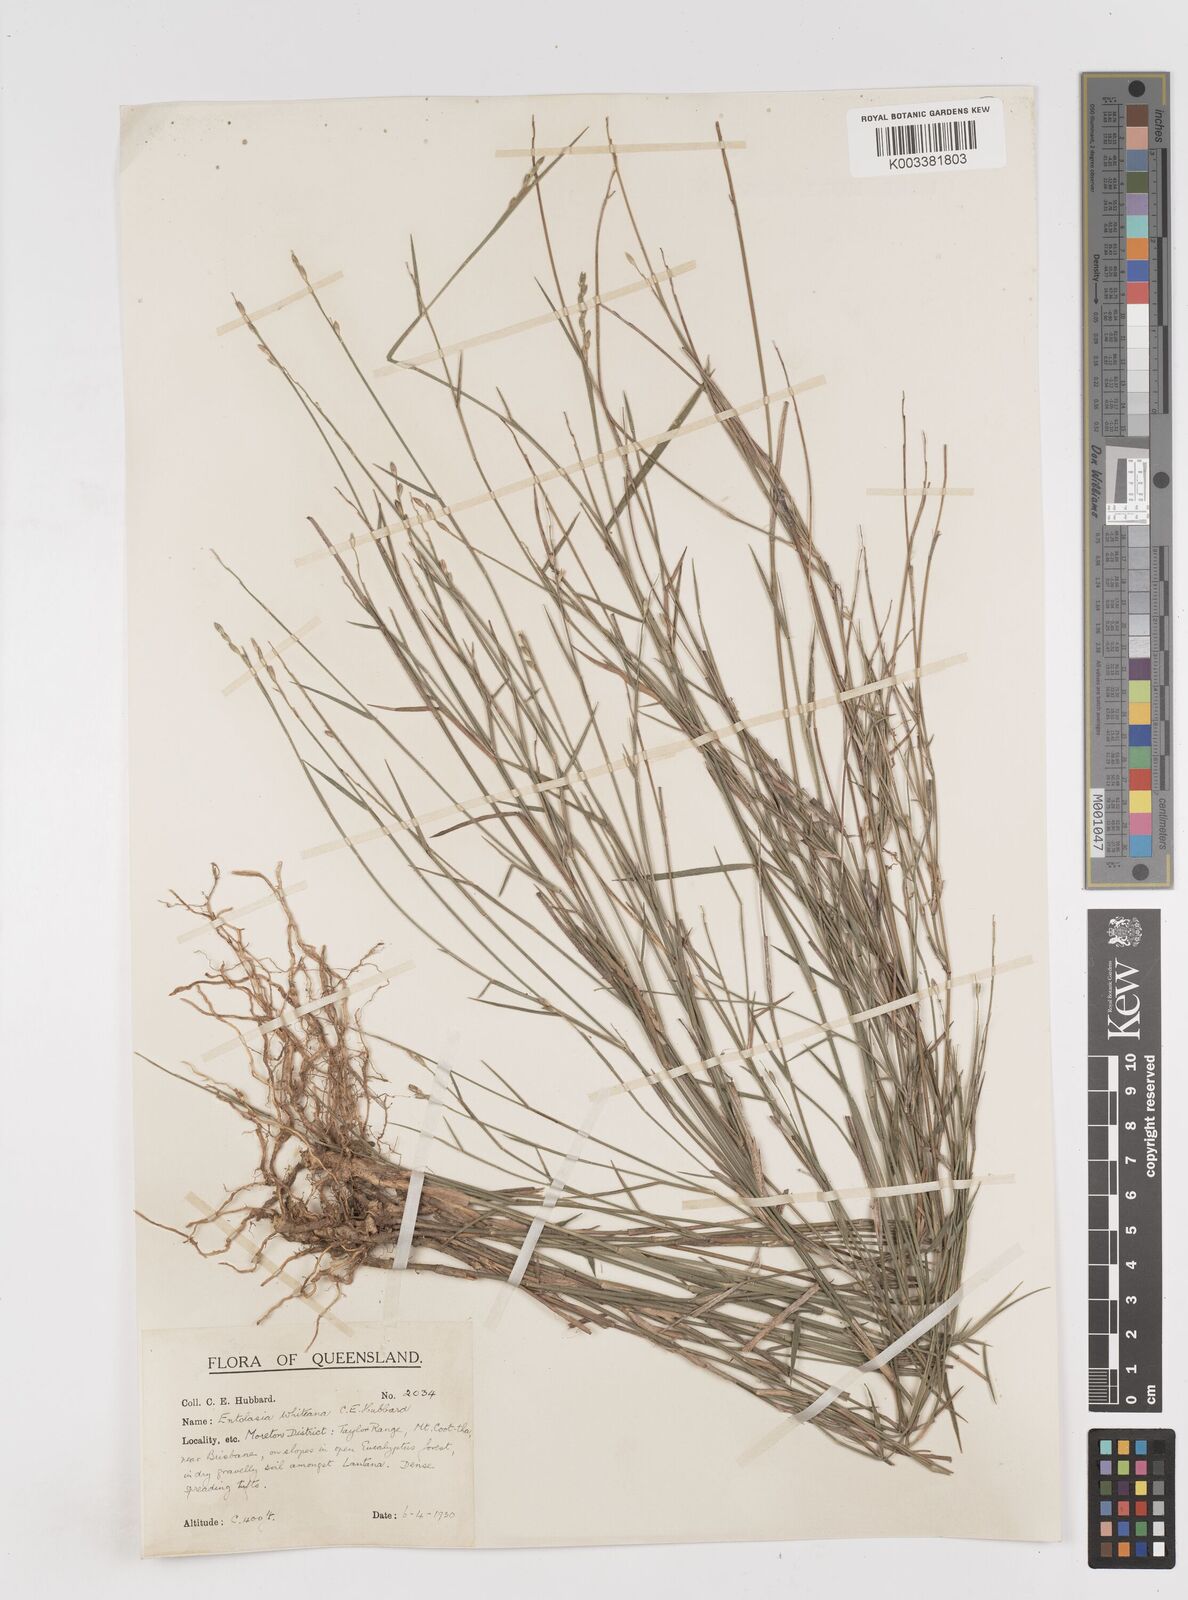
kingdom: Plantae
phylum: Tracheophyta
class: Liliopsida
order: Poales
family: Poaceae
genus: Entolasia
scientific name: Entolasia whiteana
